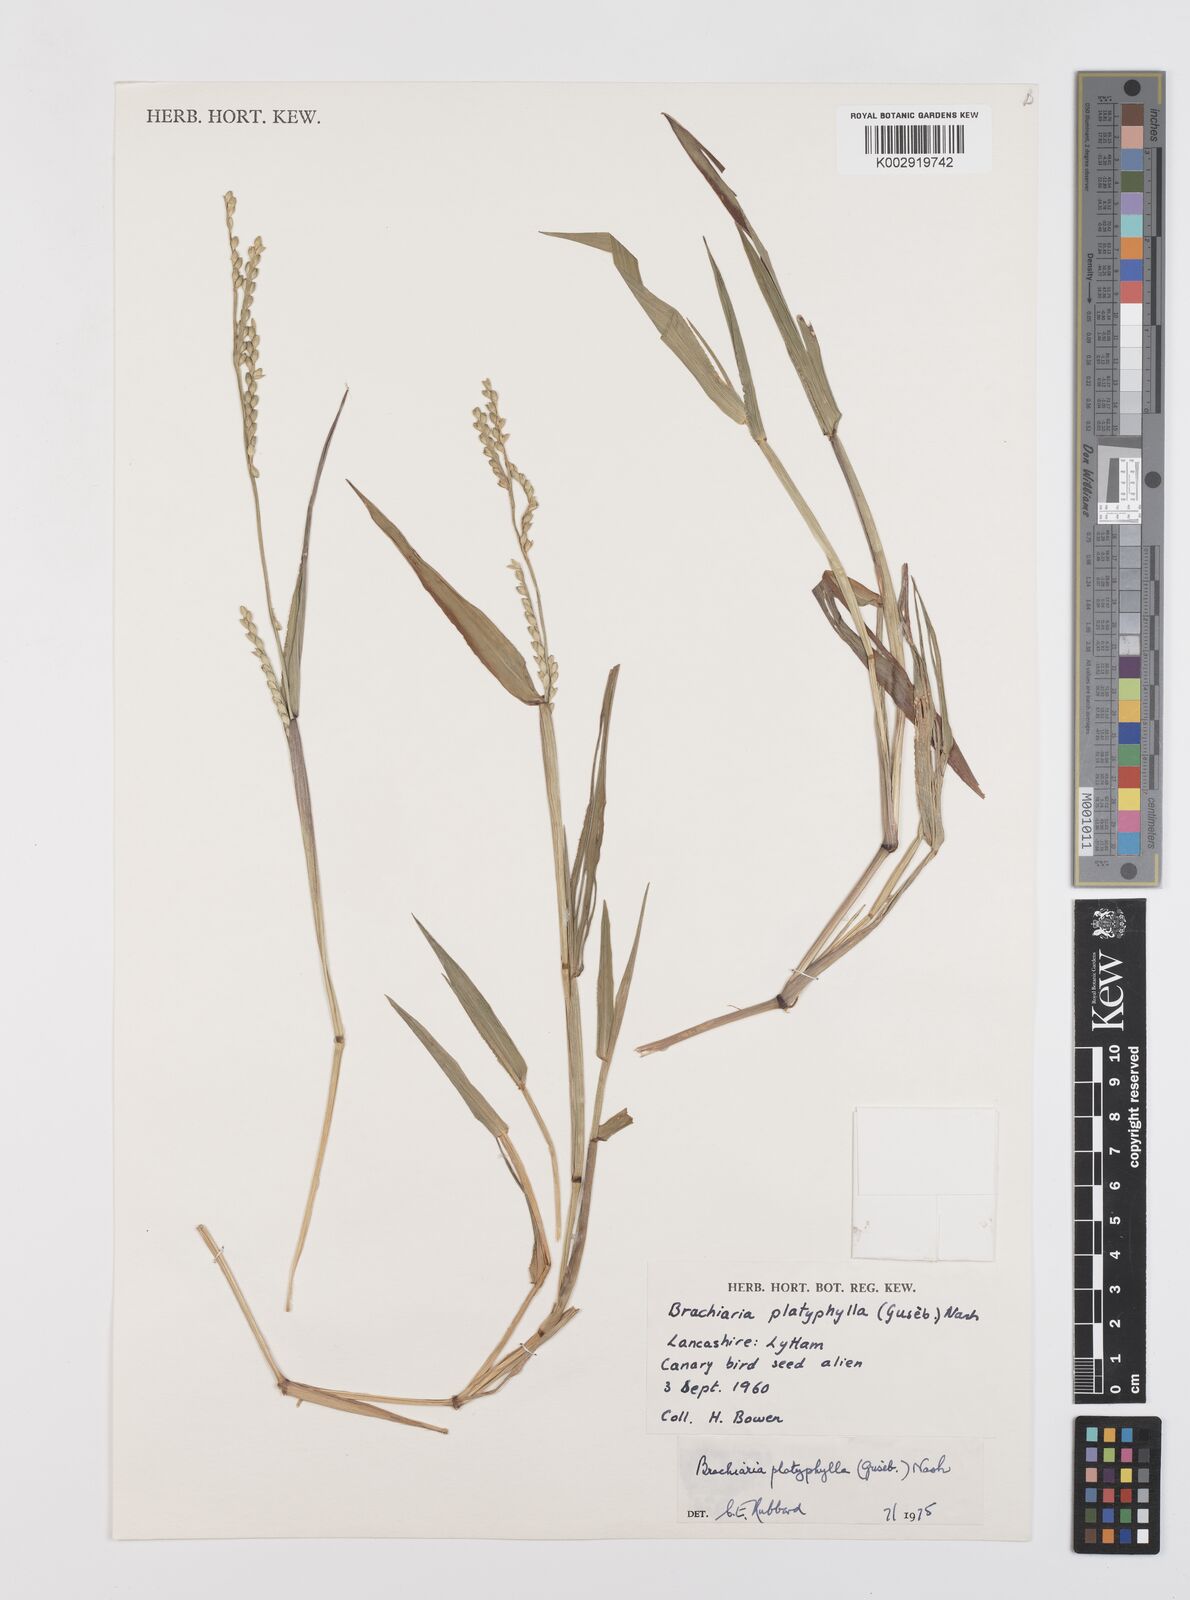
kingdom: Plantae
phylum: Tracheophyta
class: Liliopsida
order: Poales
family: Poaceae
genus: Urochloa
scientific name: Urochloa platyphylla
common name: White para grass
